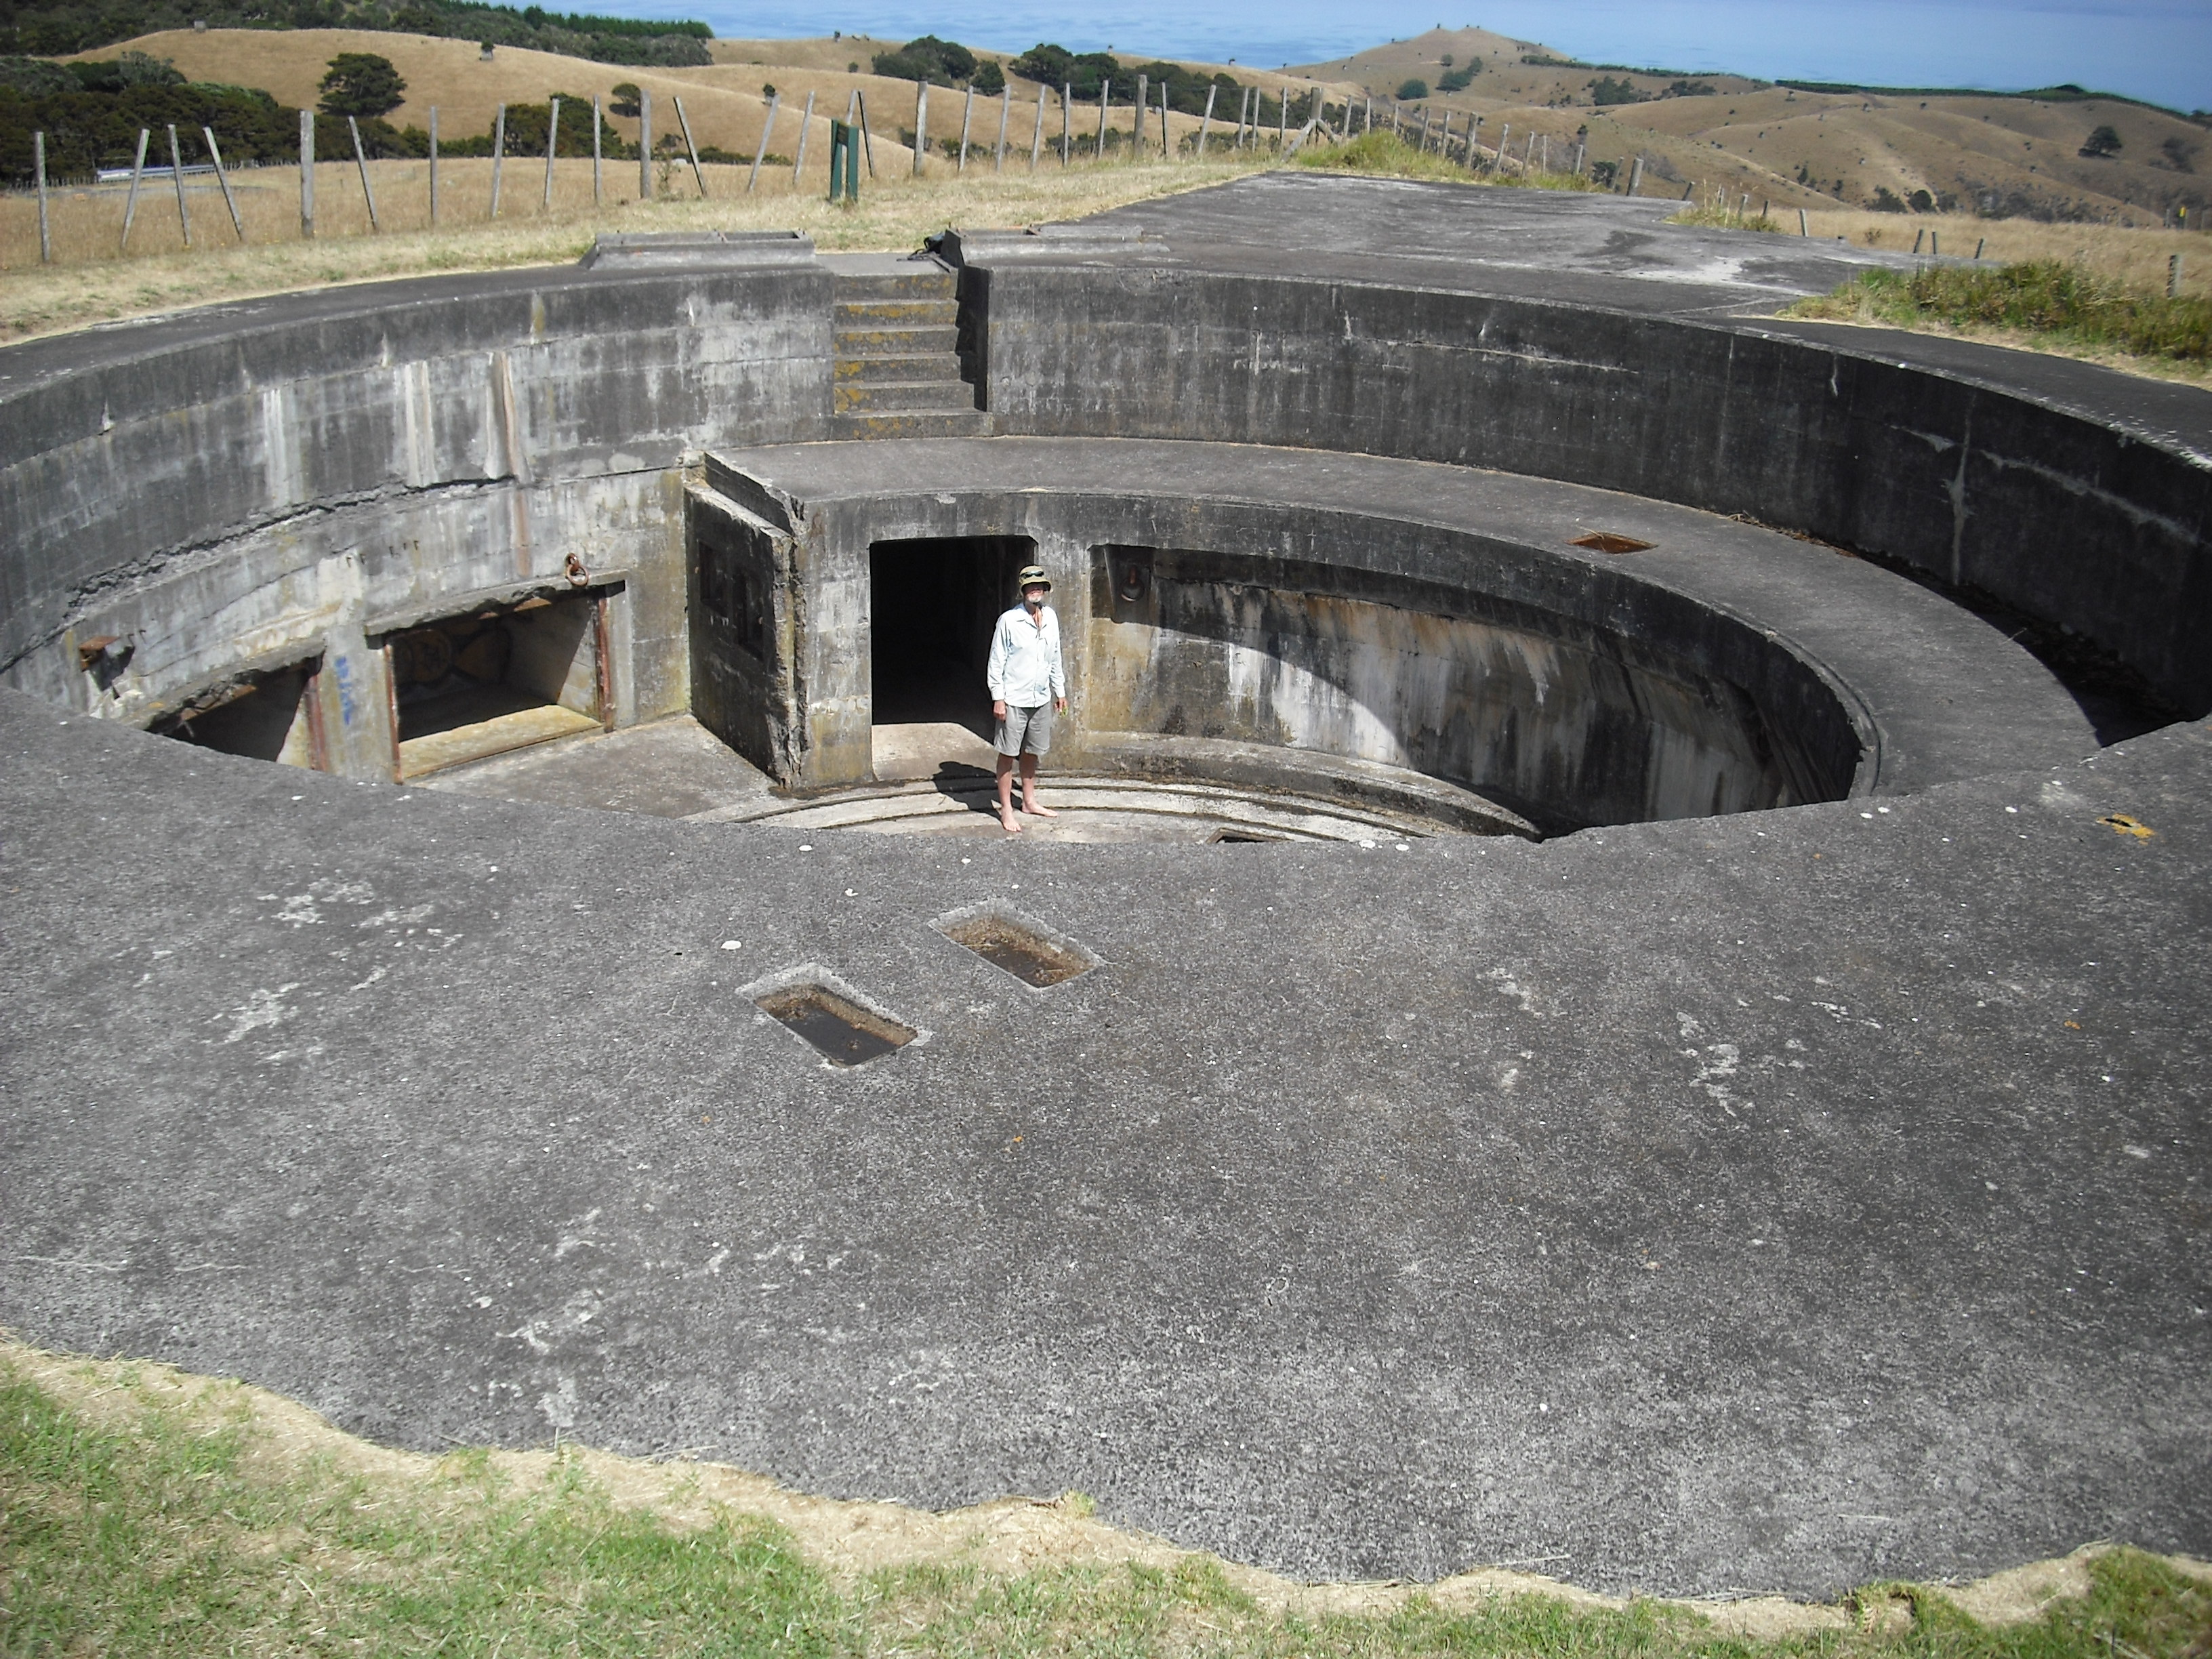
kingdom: Plantae
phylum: Tracheophyta
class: Magnoliopsida
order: Lamiales
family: Plantaginaceae
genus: Callitriche
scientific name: Callitriche stagnalis
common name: Common water-starwort
